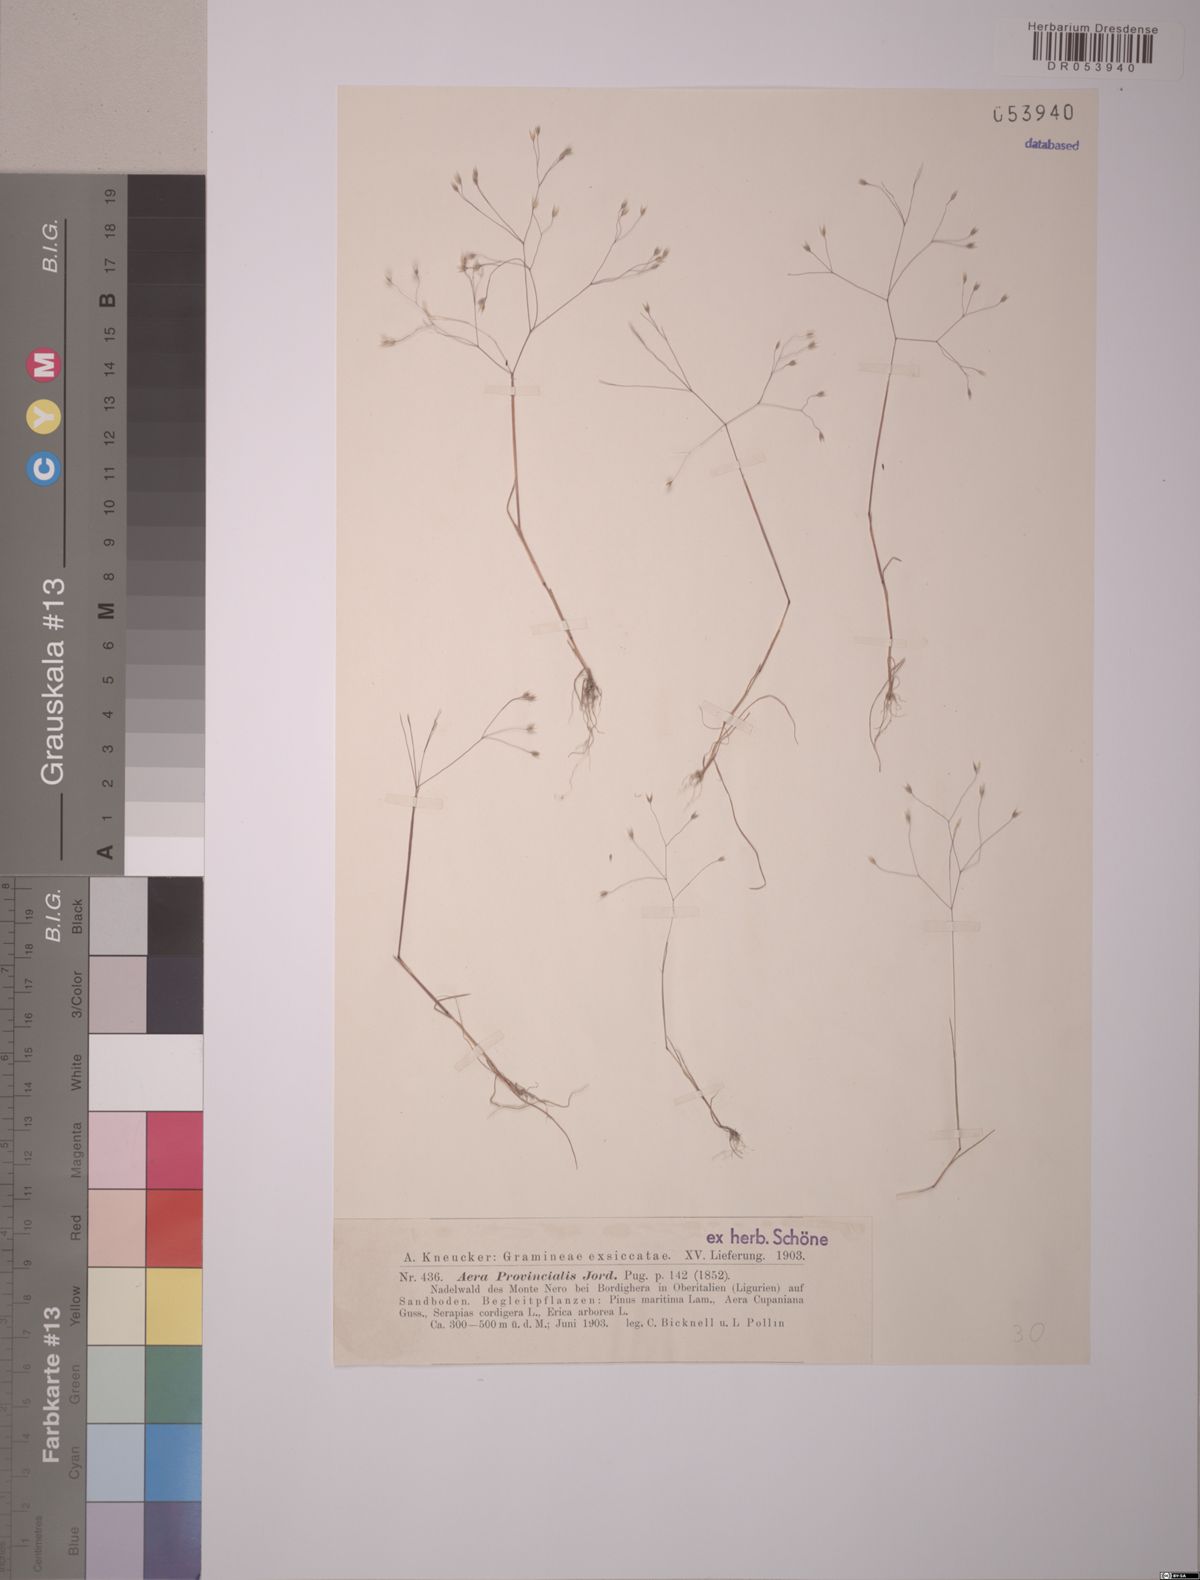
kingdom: Plantae
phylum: Tracheophyta
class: Liliopsida
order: Poales
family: Poaceae
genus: Aira
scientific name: Aira provincialis
